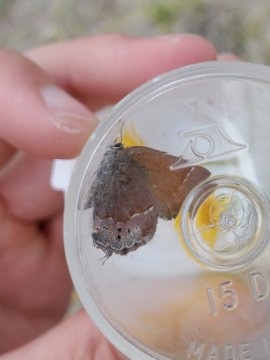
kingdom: Animalia
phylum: Arthropoda
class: Insecta
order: Lepidoptera
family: Lycaenidae
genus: Mitoura
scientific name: Mitoura gryneus
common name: Juniper Hairstreak
